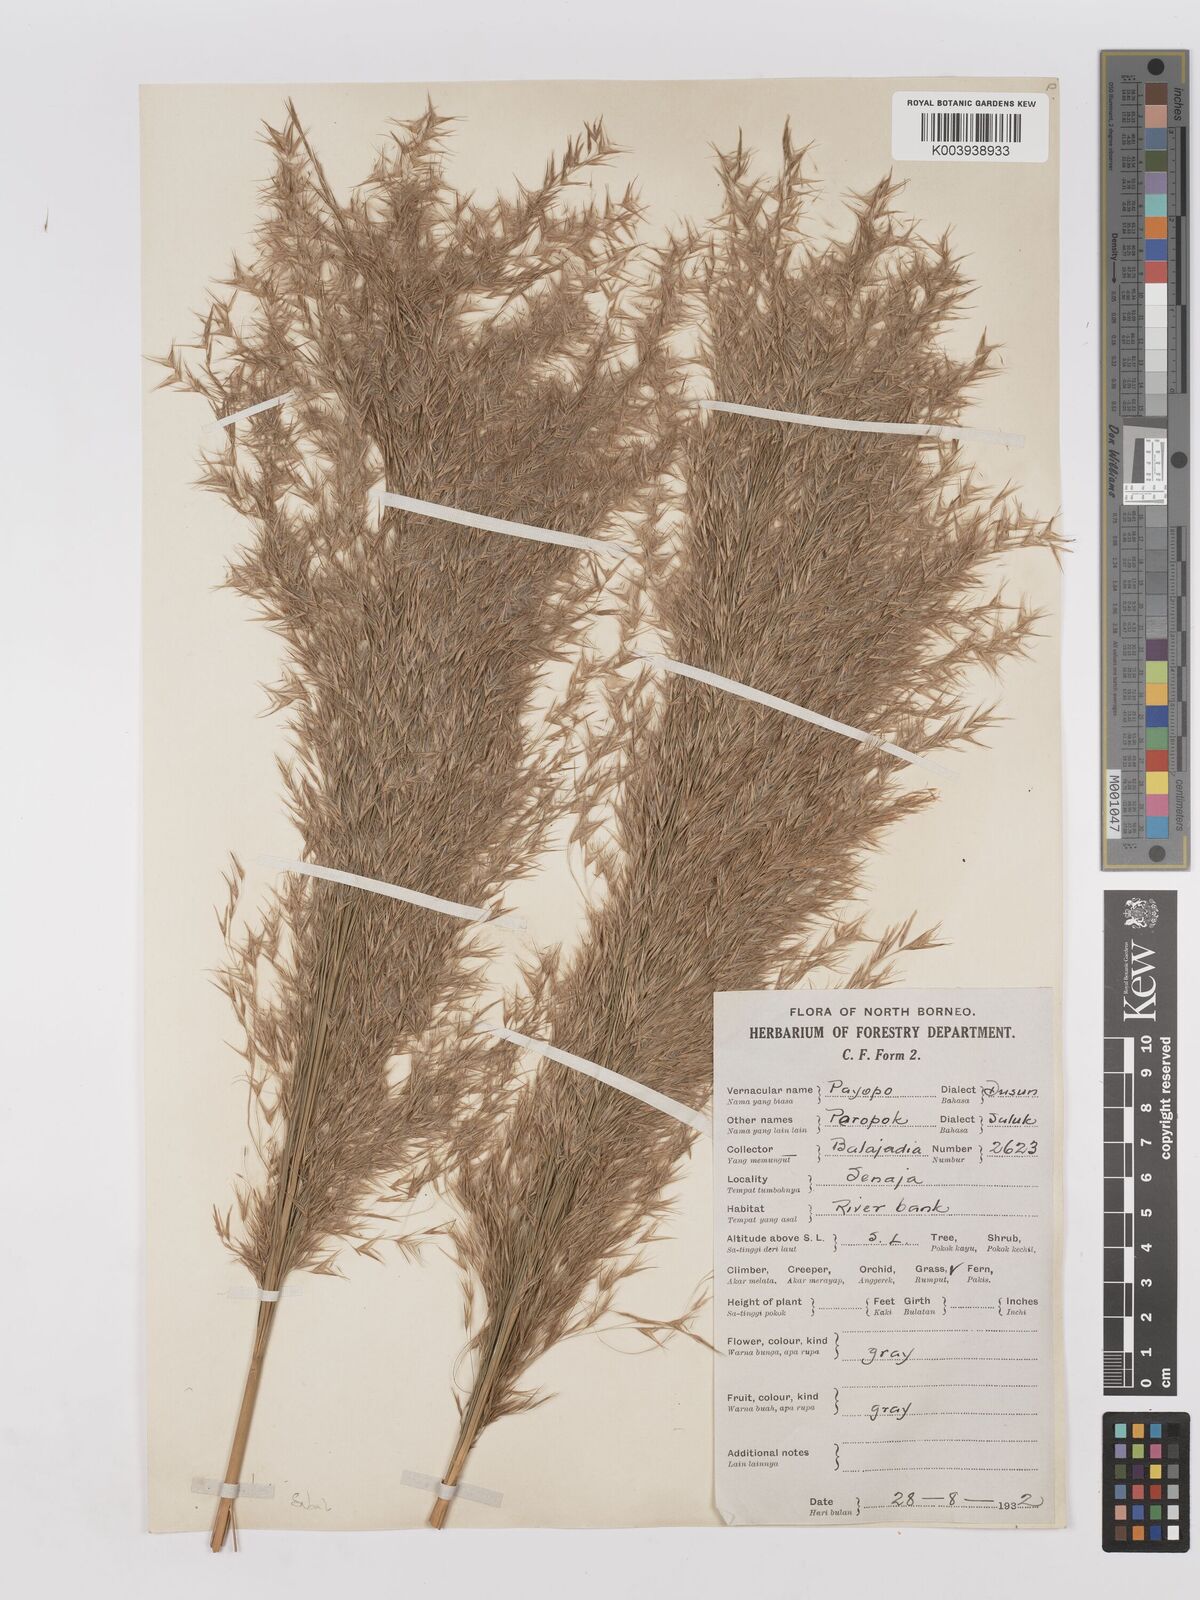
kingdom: Plantae
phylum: Tracheophyta
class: Liliopsida
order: Poales
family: Poaceae
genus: Phragmites
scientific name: Phragmites karka
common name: Tropical reed
